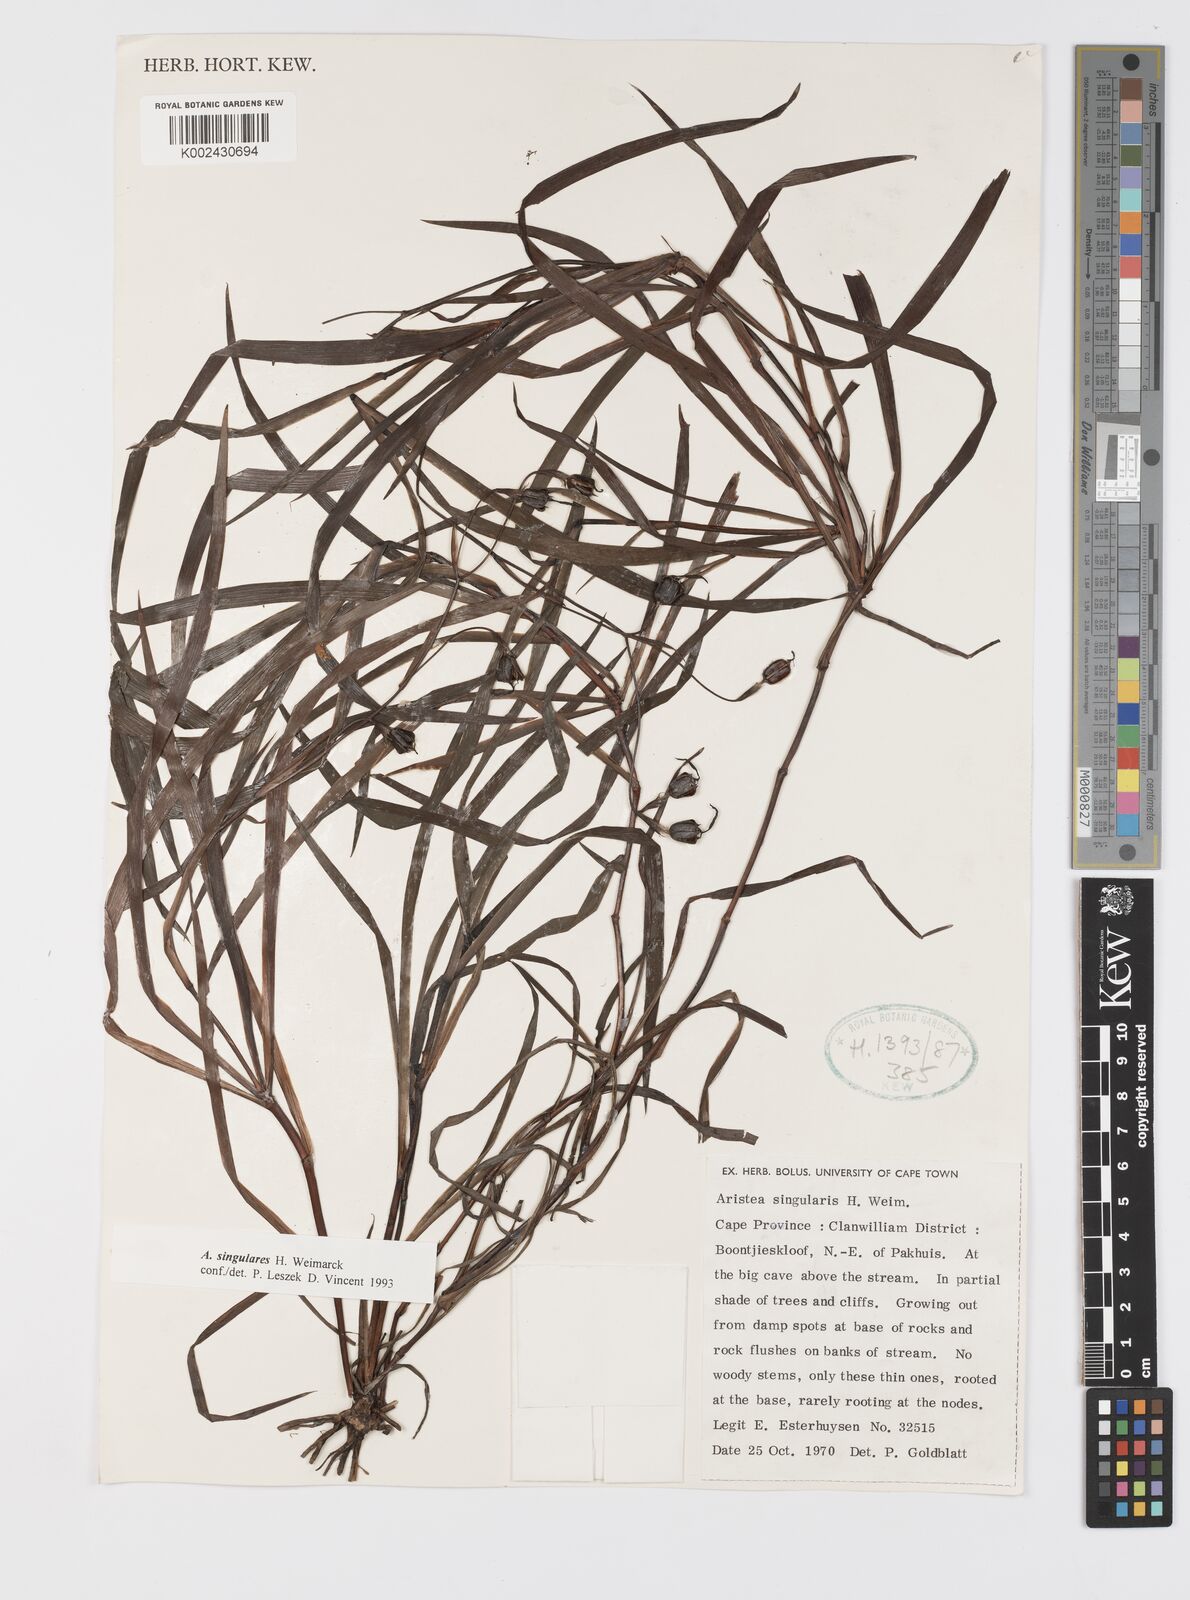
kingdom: Plantae
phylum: Tracheophyta
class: Liliopsida
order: Asparagales
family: Iridaceae
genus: Aristea
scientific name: Aristea singularis
